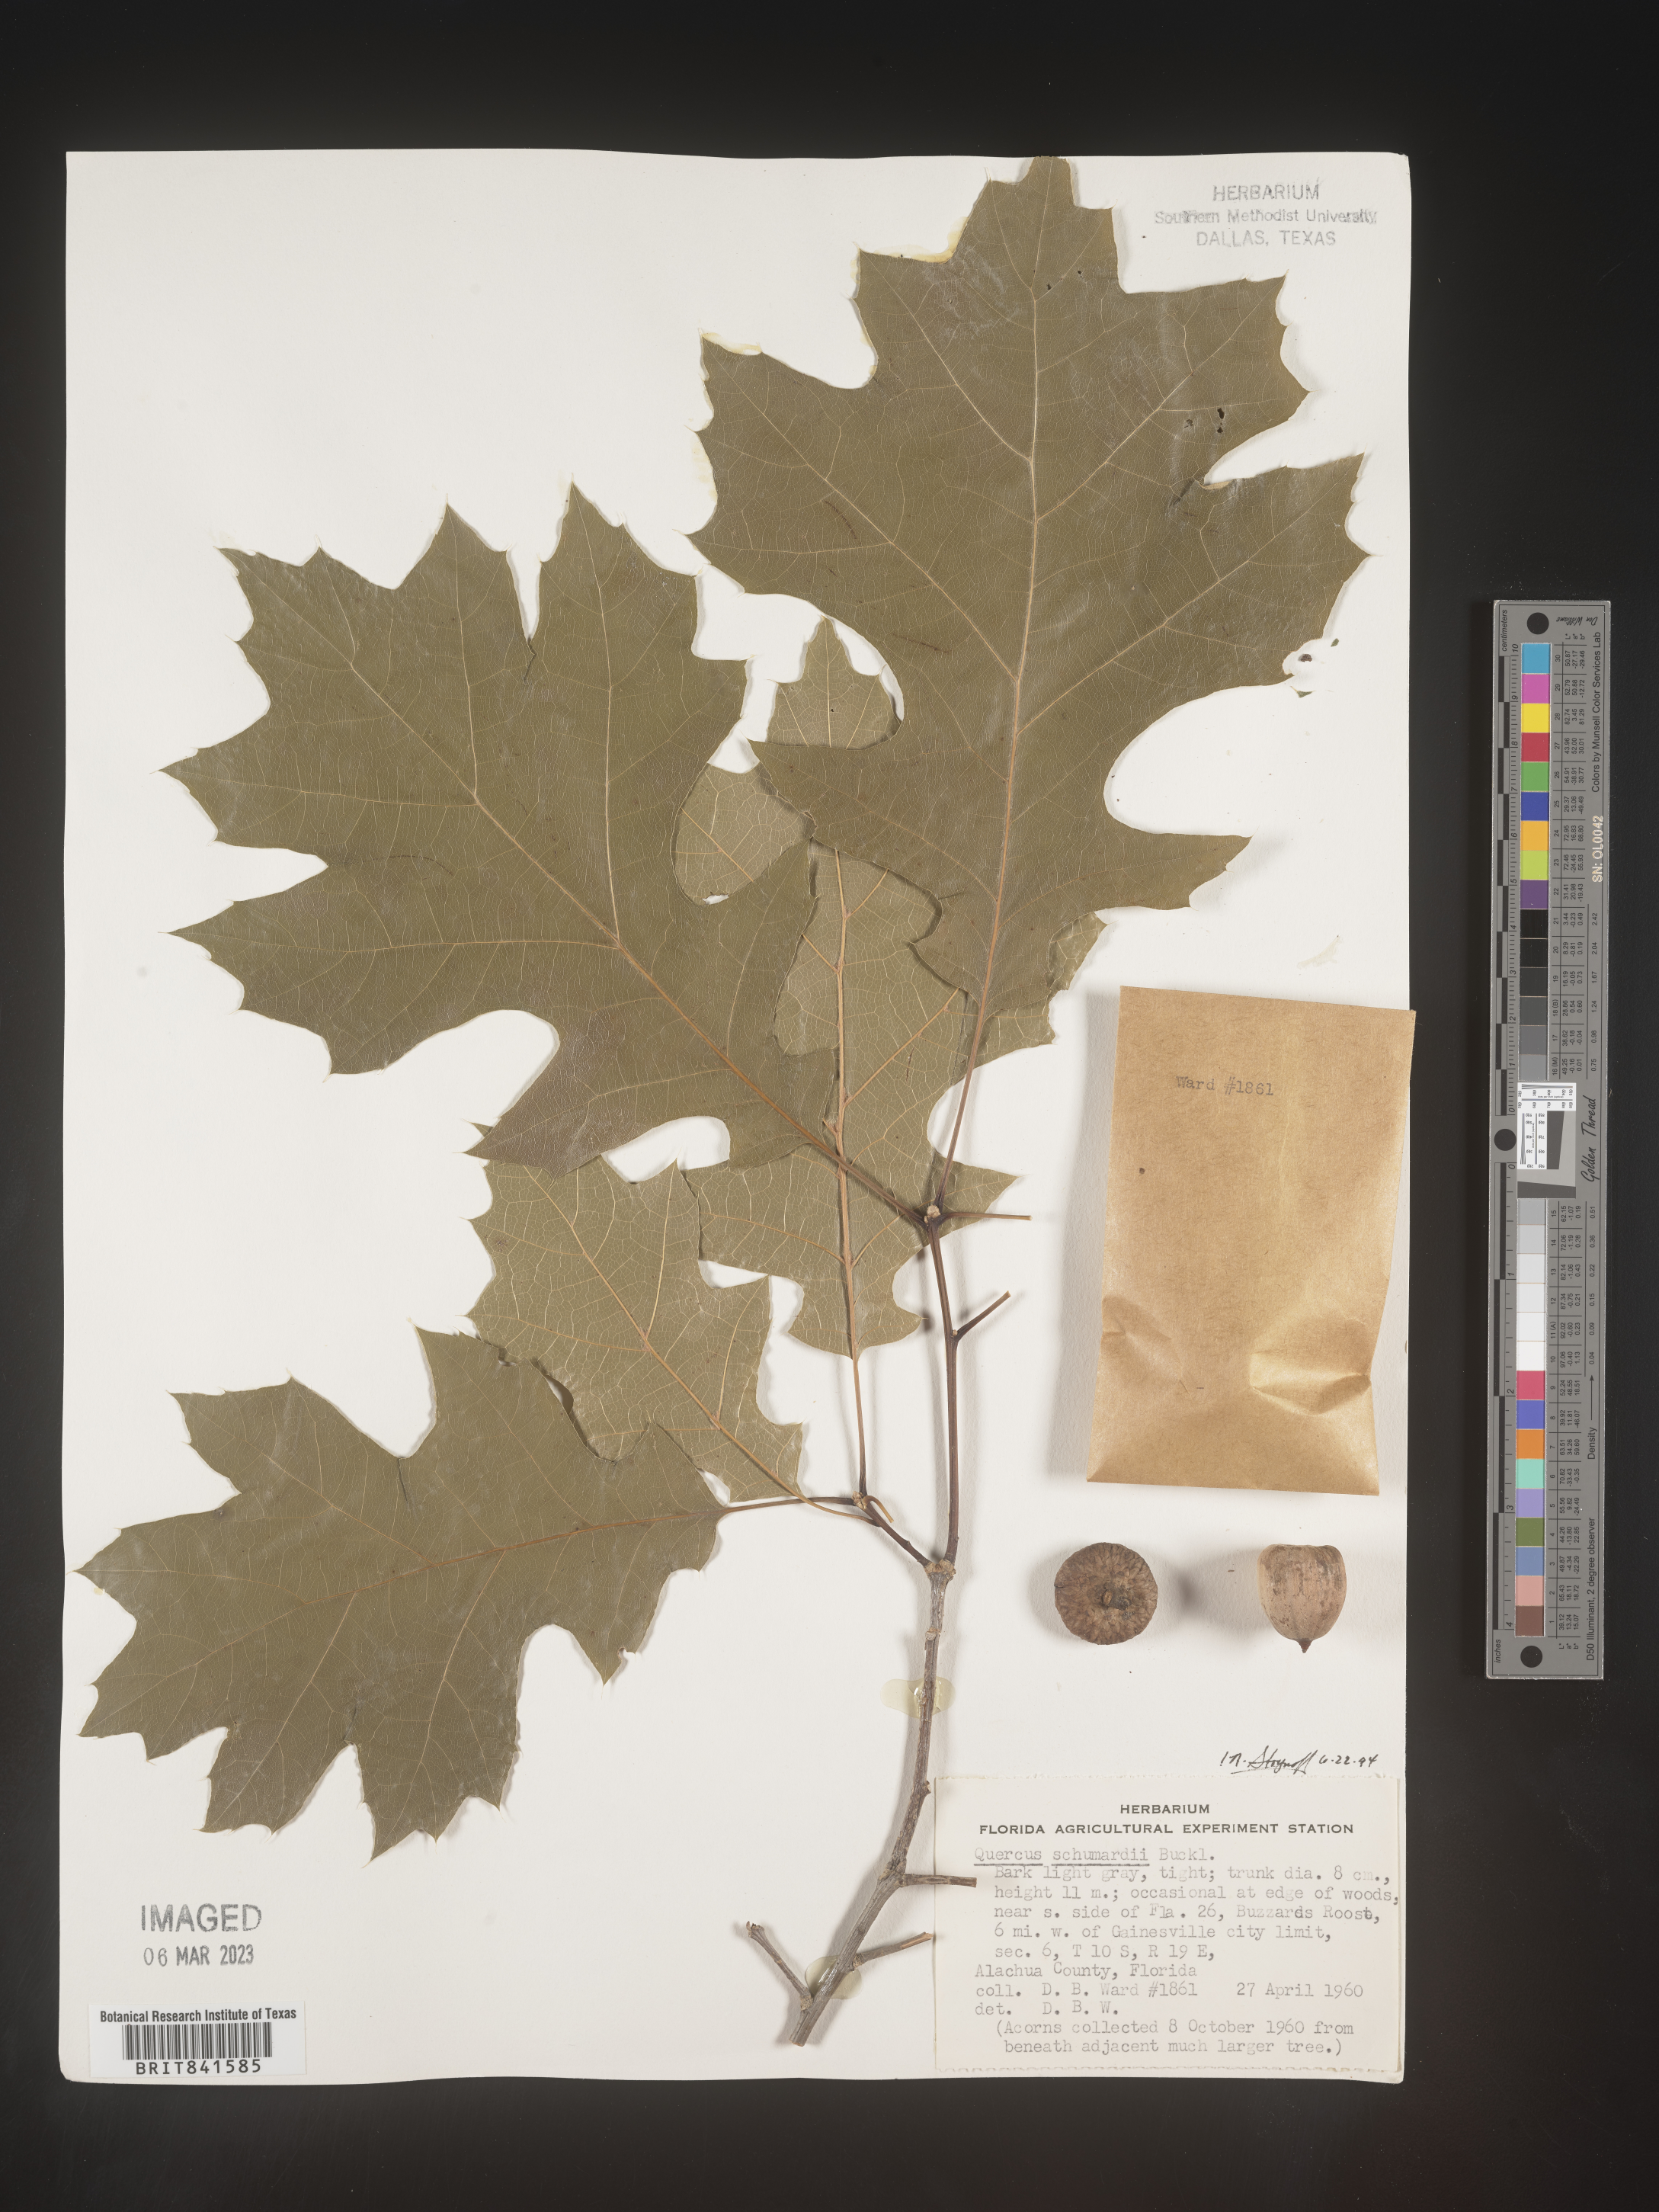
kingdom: Plantae
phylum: Tracheophyta
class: Magnoliopsida
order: Fagales
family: Fagaceae
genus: Quercus
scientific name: Quercus shumardii
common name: Shumard oak
